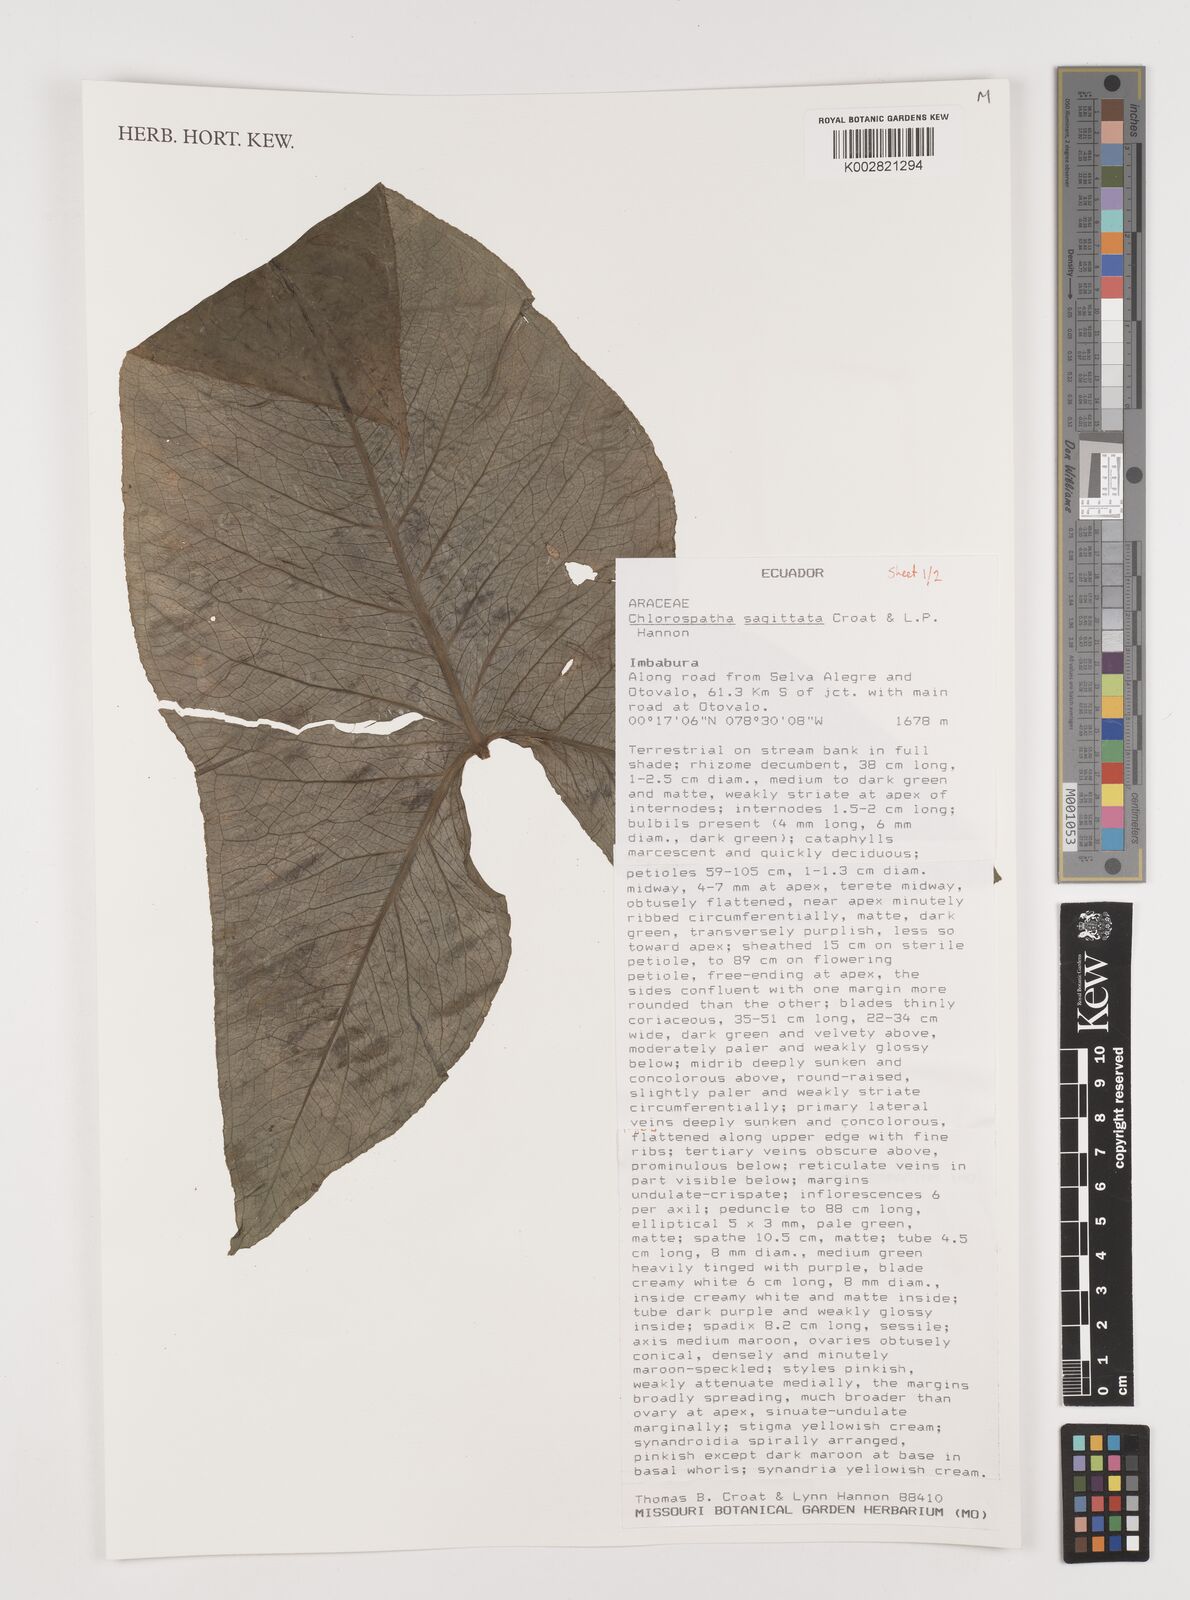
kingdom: Plantae
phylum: Tracheophyta
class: Liliopsida
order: Alismatales
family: Araceae
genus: Chlorospatha
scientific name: Chlorospatha sagittata
